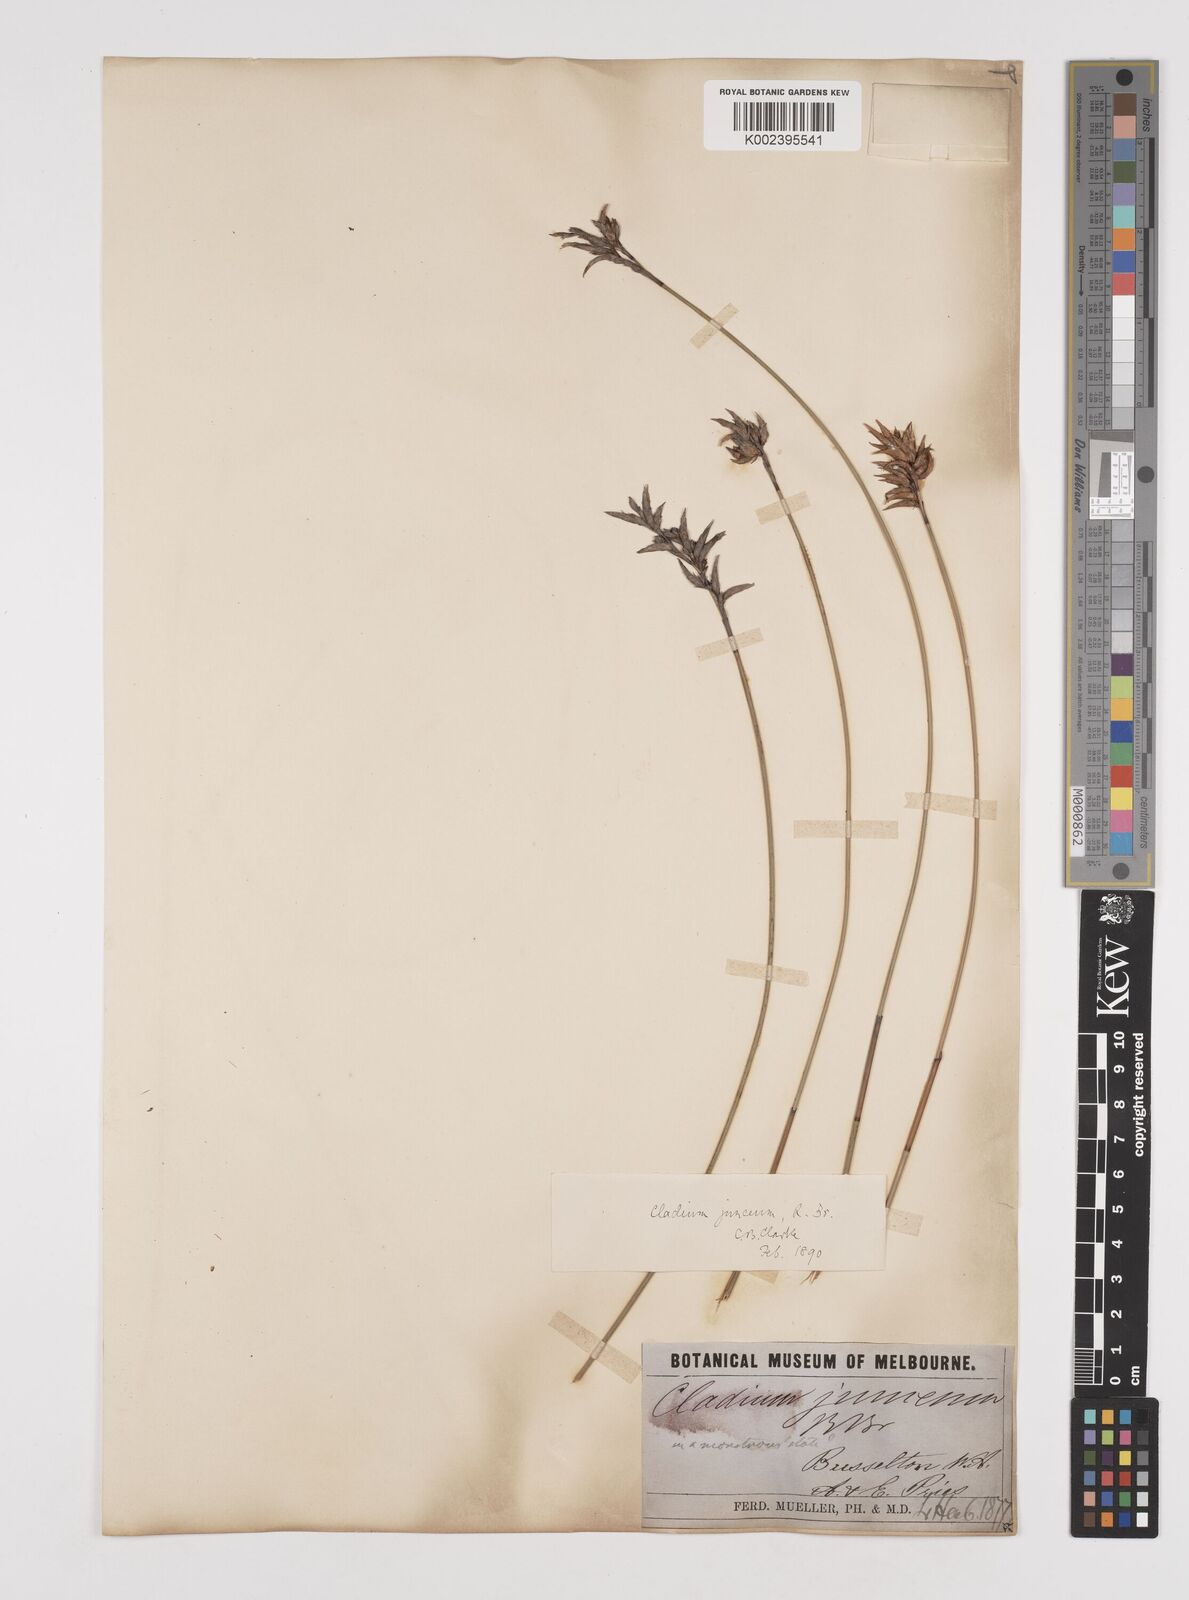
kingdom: Plantae
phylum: Tracheophyta
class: Liliopsida
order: Poales
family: Cyperaceae
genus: Machaerina
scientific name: Machaerina juncea
